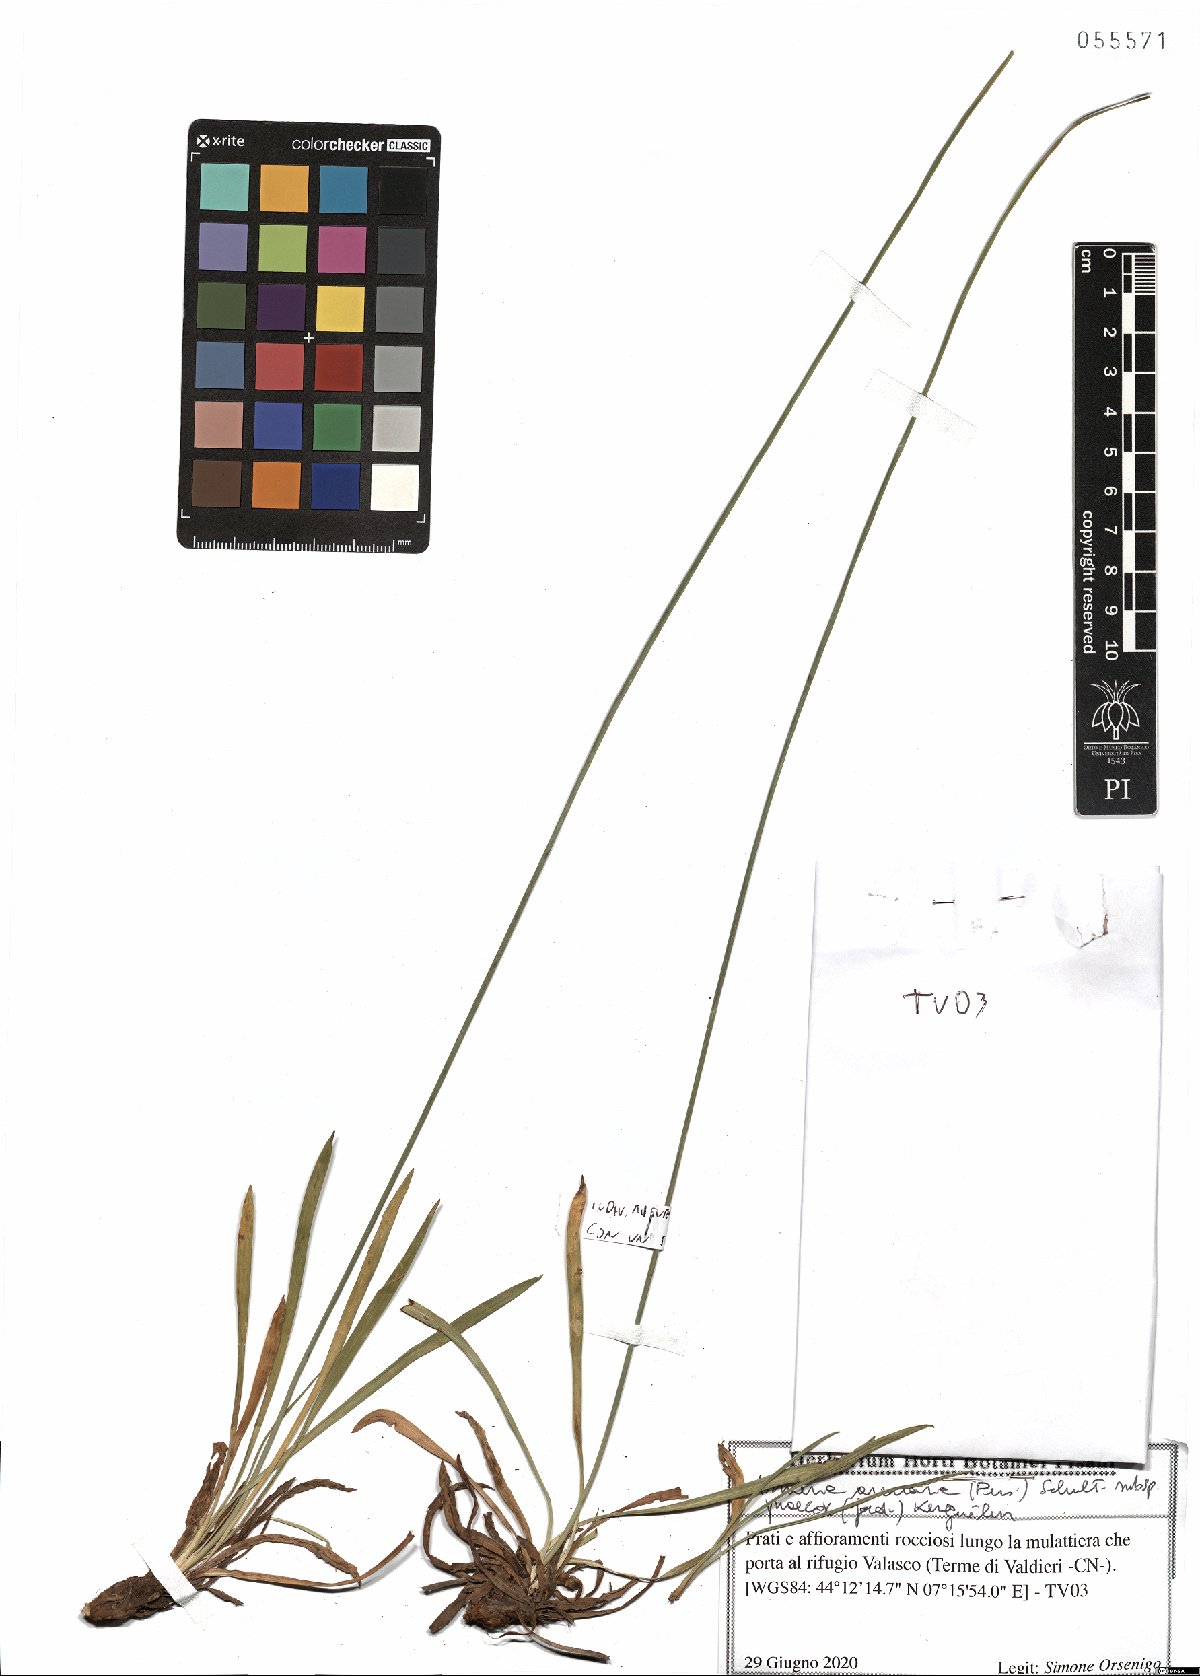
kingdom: Plantae
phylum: Tracheophyta
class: Magnoliopsida
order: Caryophyllales
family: Plumbaginaceae
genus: Armeria
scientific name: Armeria arenaria
